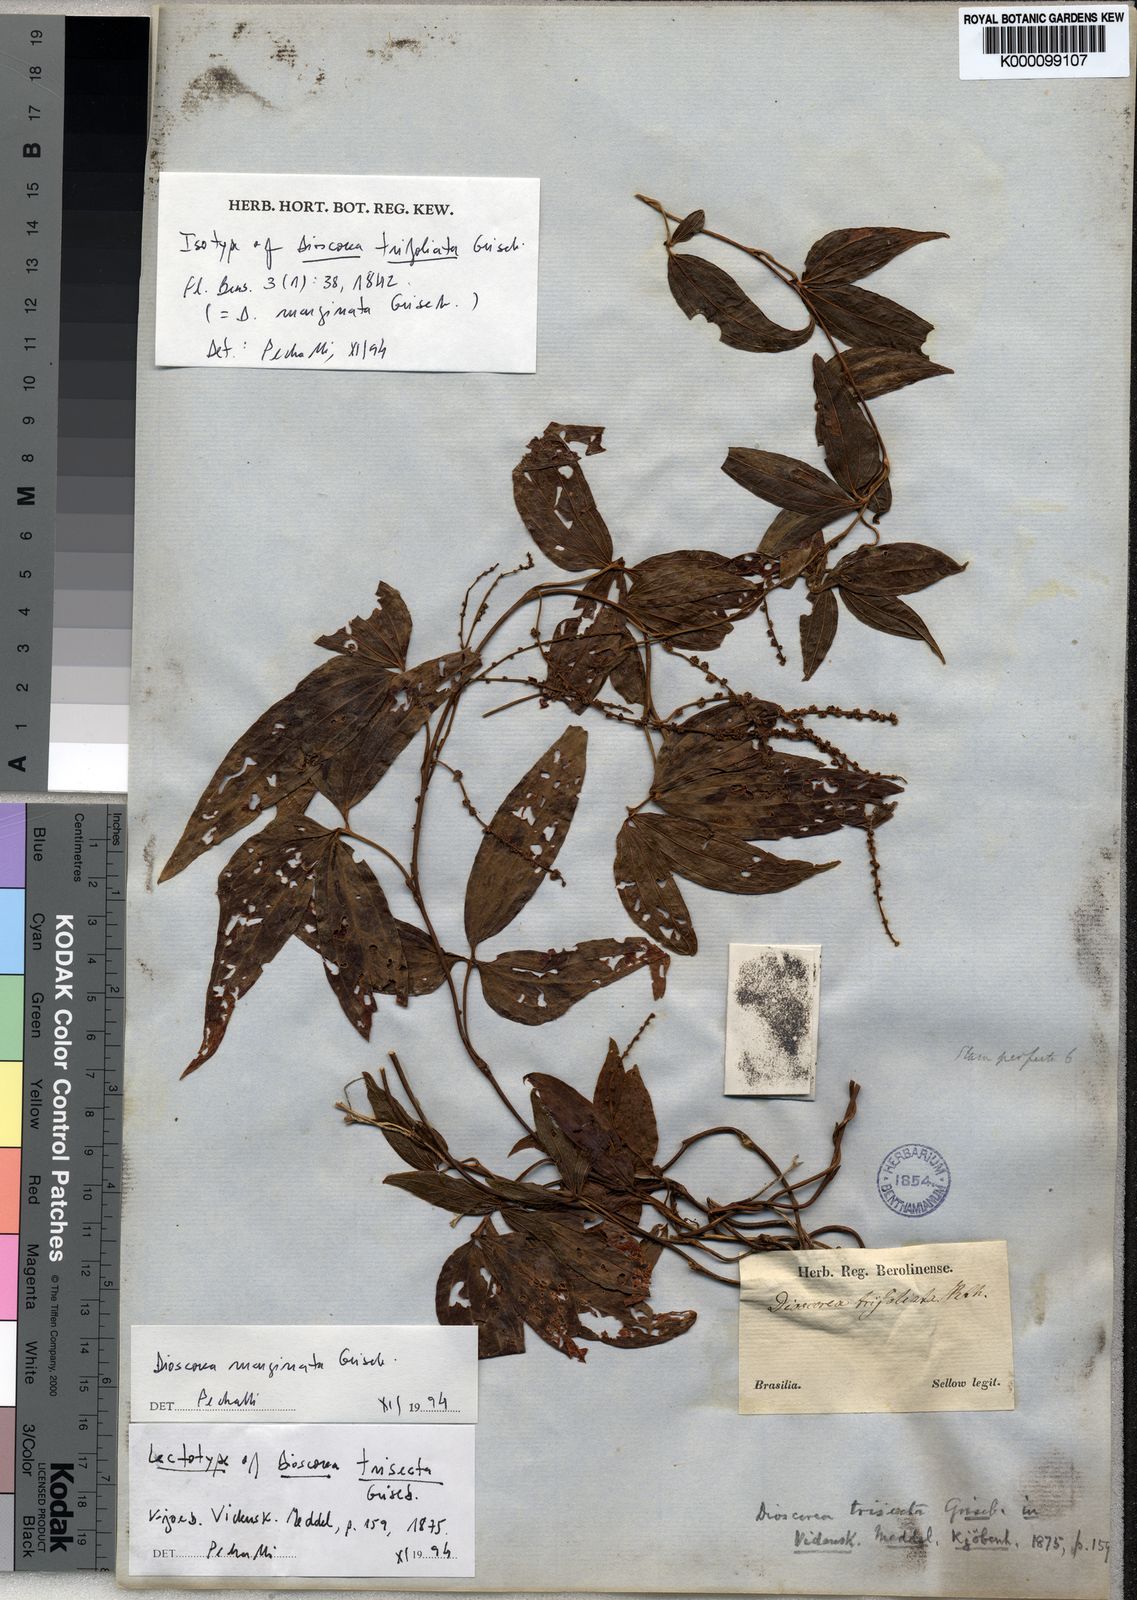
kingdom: Plantae
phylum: Tracheophyta
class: Liliopsida
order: Dioscoreales
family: Dioscoreaceae
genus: Dioscorea
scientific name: Dioscorea trisecta
